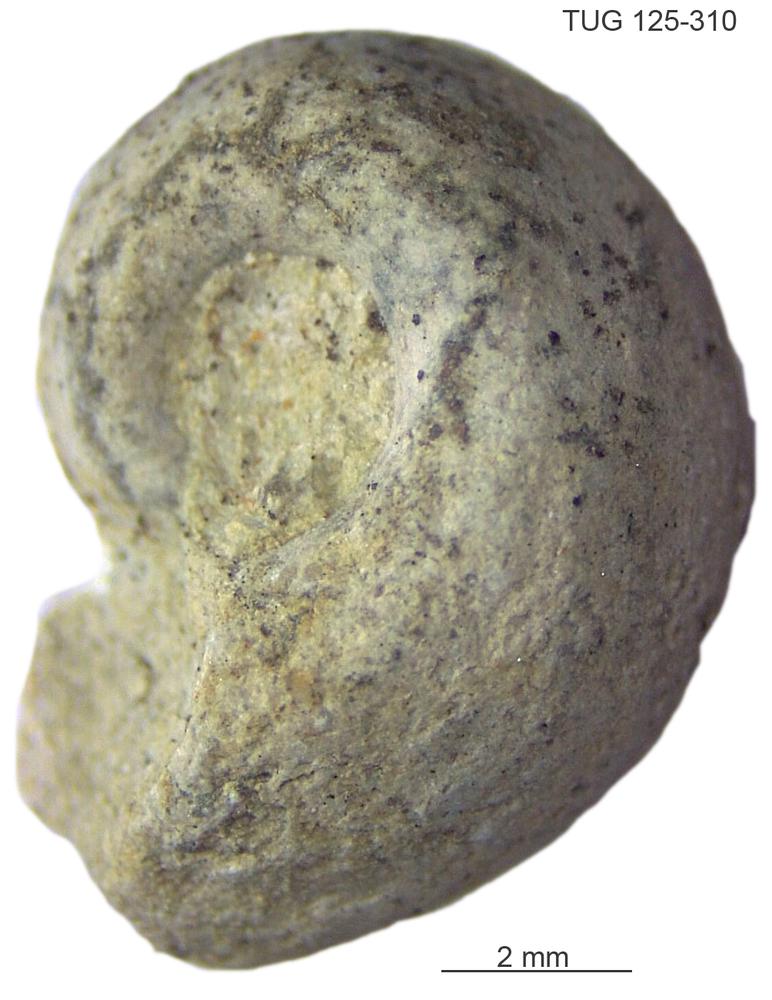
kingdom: Animalia
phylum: Mollusca
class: Gastropoda
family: Bucaniidae
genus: Bucania
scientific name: Bucania
